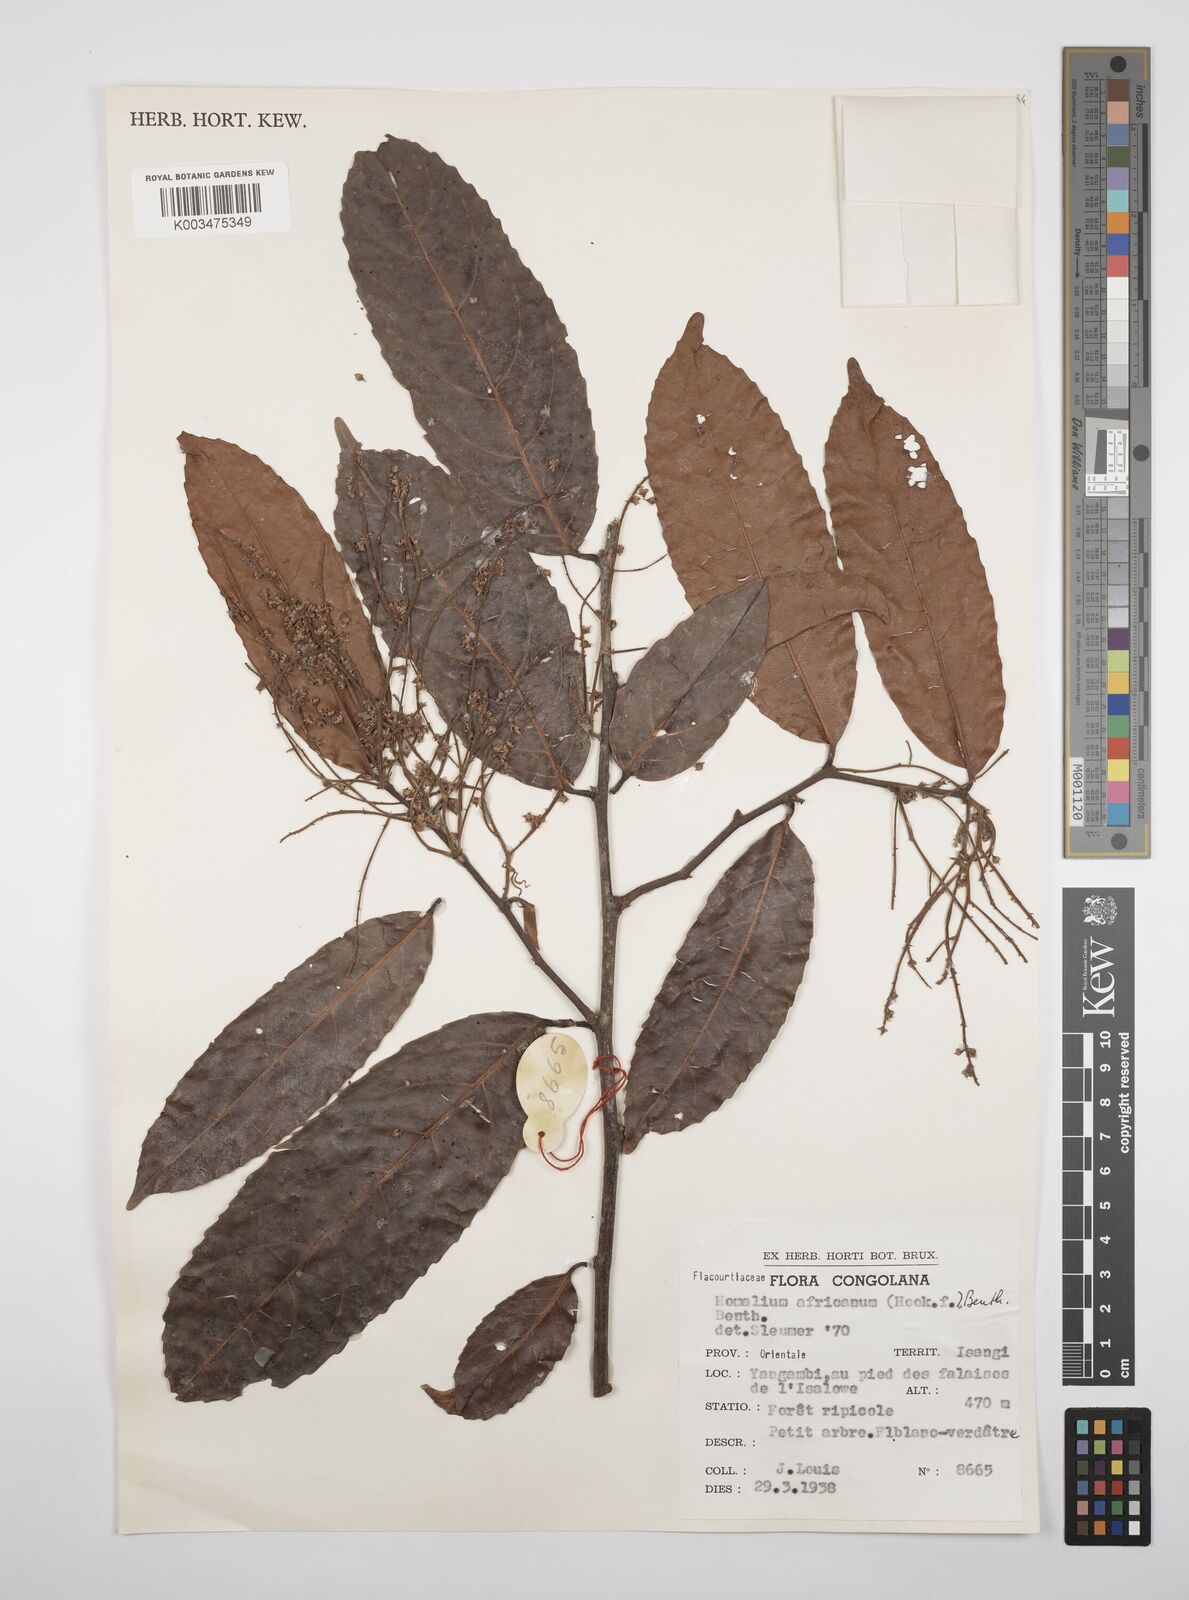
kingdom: Plantae
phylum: Tracheophyta
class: Magnoliopsida
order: Malpighiales
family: Salicaceae
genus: Homalium
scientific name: Homalium africanum
